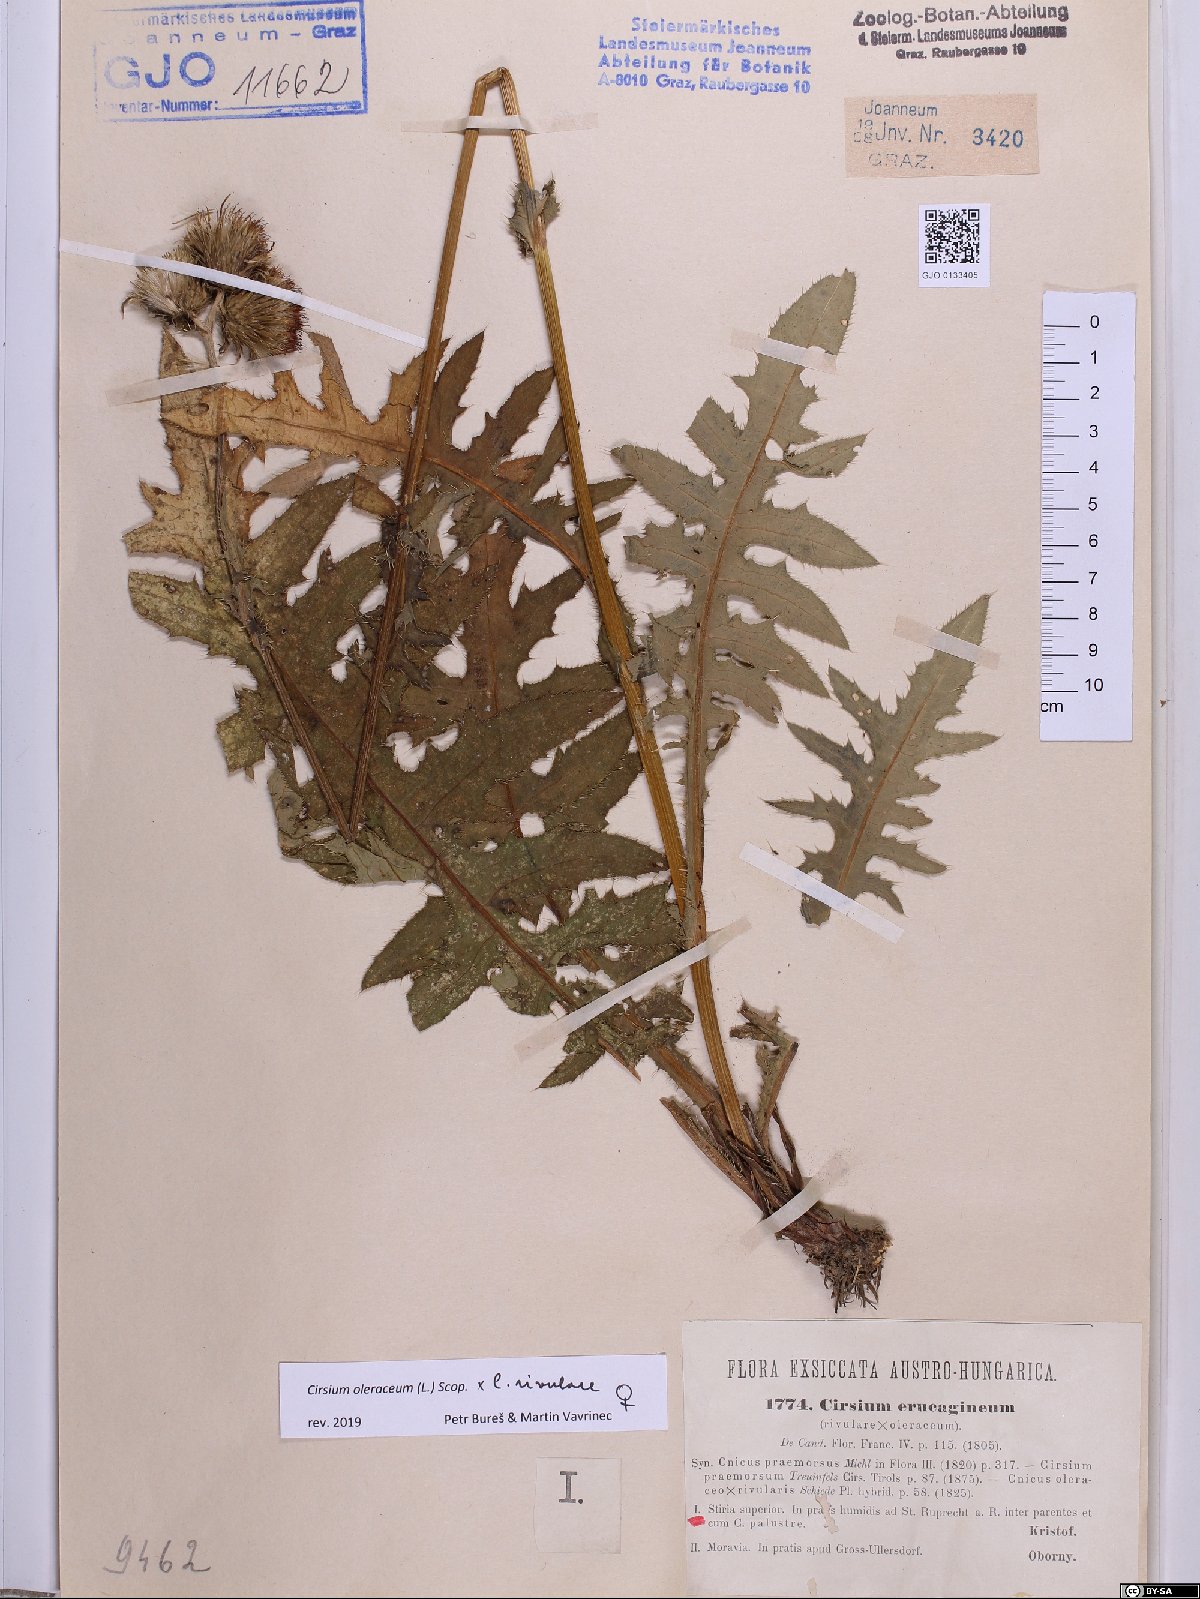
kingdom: Plantae
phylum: Tracheophyta
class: Magnoliopsida
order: Asterales
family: Asteraceae
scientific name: Asteraceae
